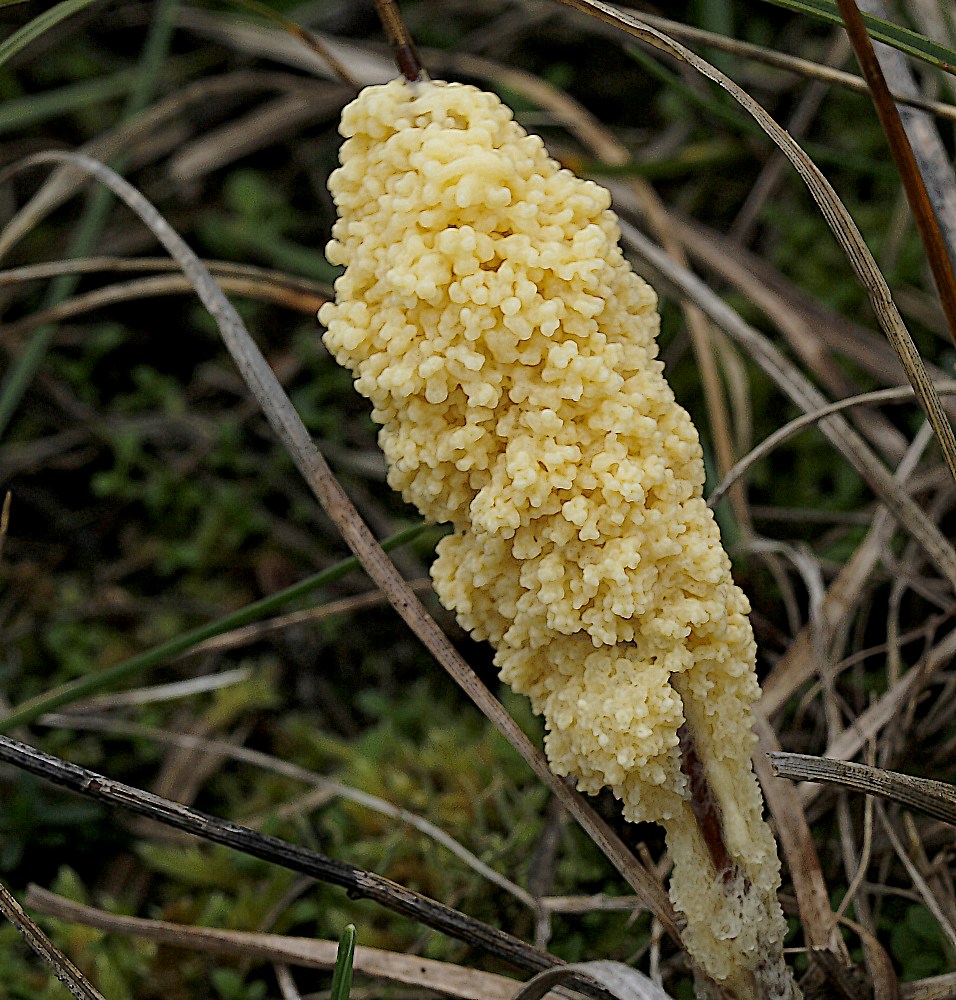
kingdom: Protozoa
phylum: Mycetozoa
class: Myxomycetes
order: Physarales
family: Physaraceae
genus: Didymium
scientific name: Didymium
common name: urteskum
